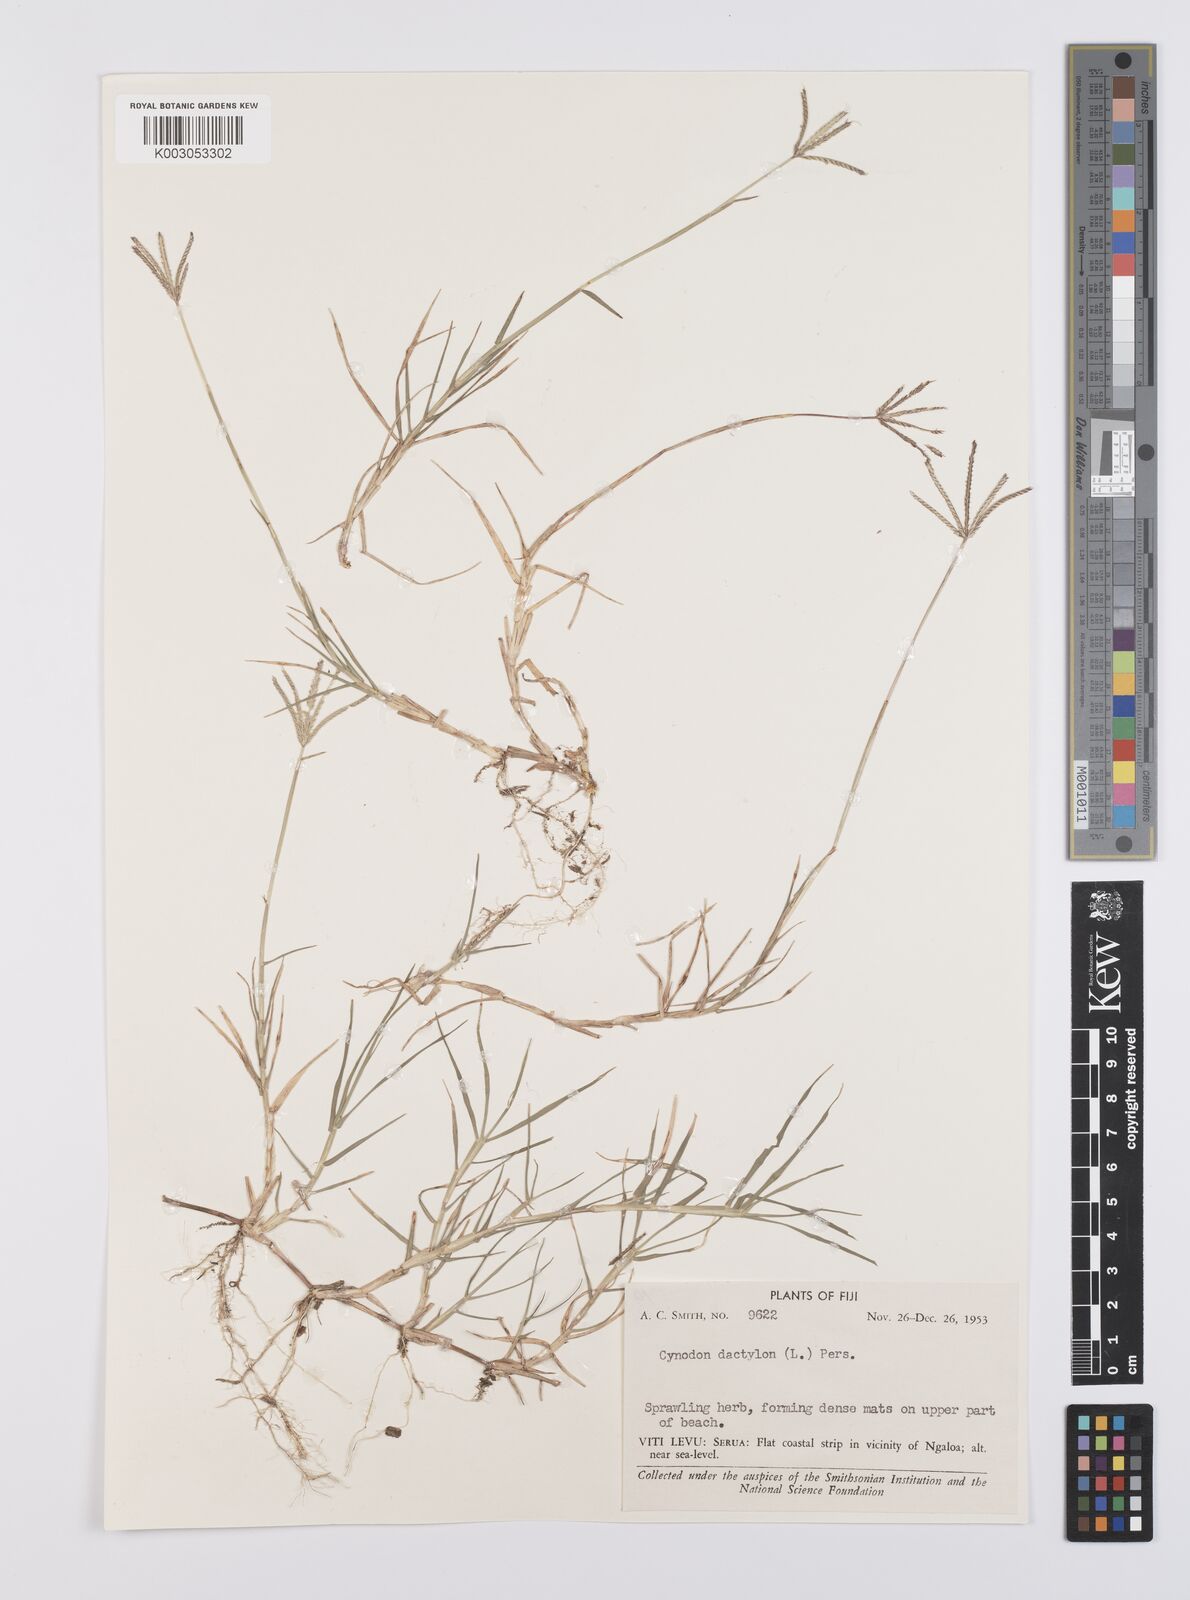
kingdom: Plantae
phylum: Tracheophyta
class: Liliopsida
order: Poales
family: Poaceae
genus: Cynodon
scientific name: Cynodon dactylon
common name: Bermuda grass
